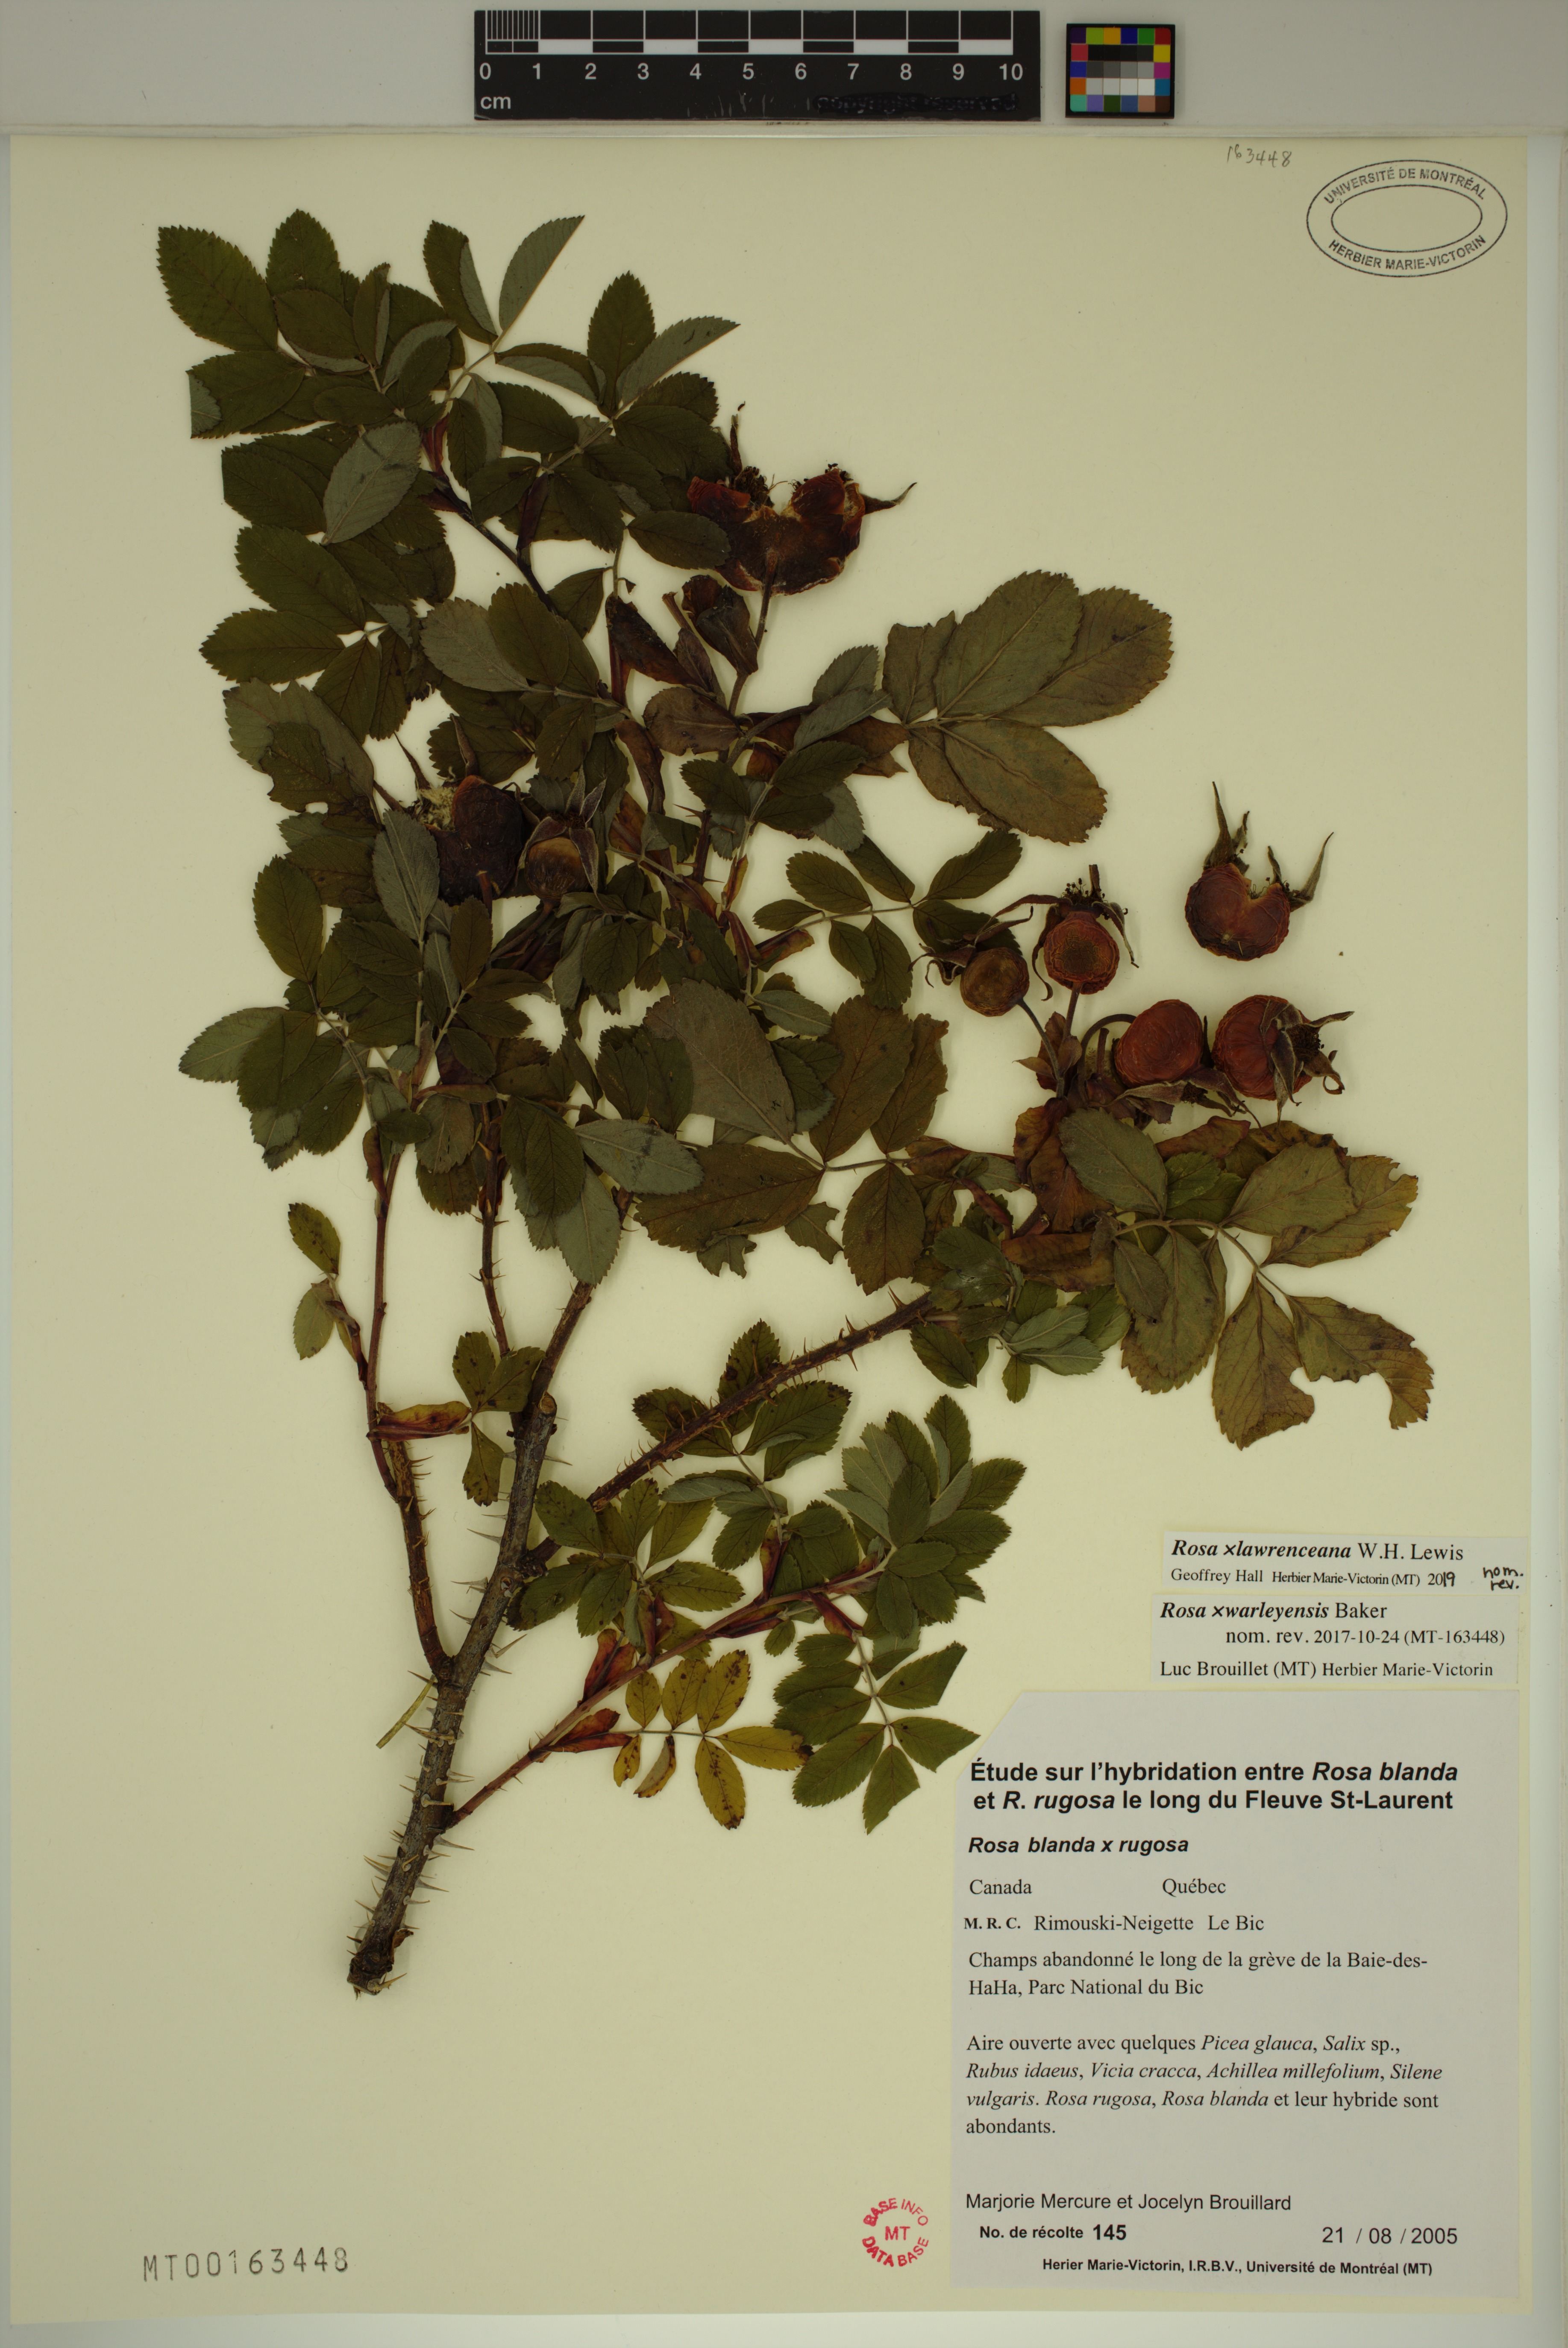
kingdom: Plantae
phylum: Tracheophyta
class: Magnoliopsida
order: Rosales
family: Rosaceae
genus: Rosa
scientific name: Rosa chinensis
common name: China rose
